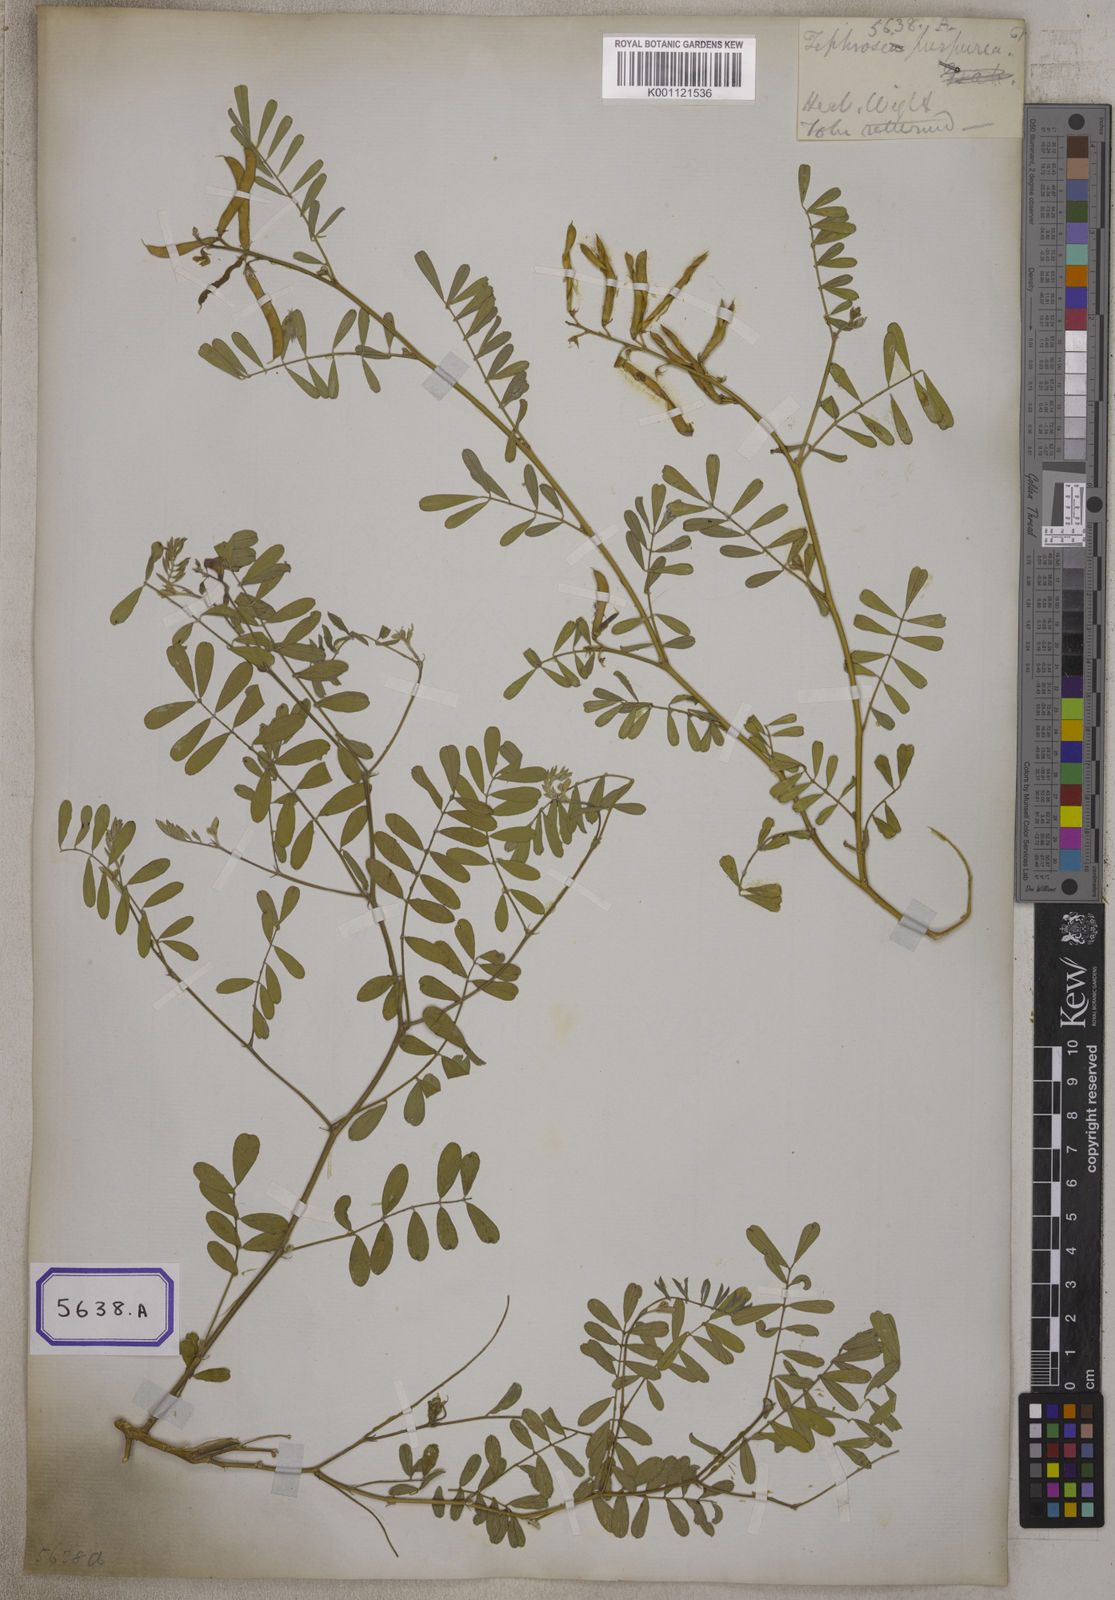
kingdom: Plantae
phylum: Tracheophyta
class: Magnoliopsida
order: Fabales
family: Fabaceae
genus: Tephrosia
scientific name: Tephrosia purpurea
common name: Fishpoison
